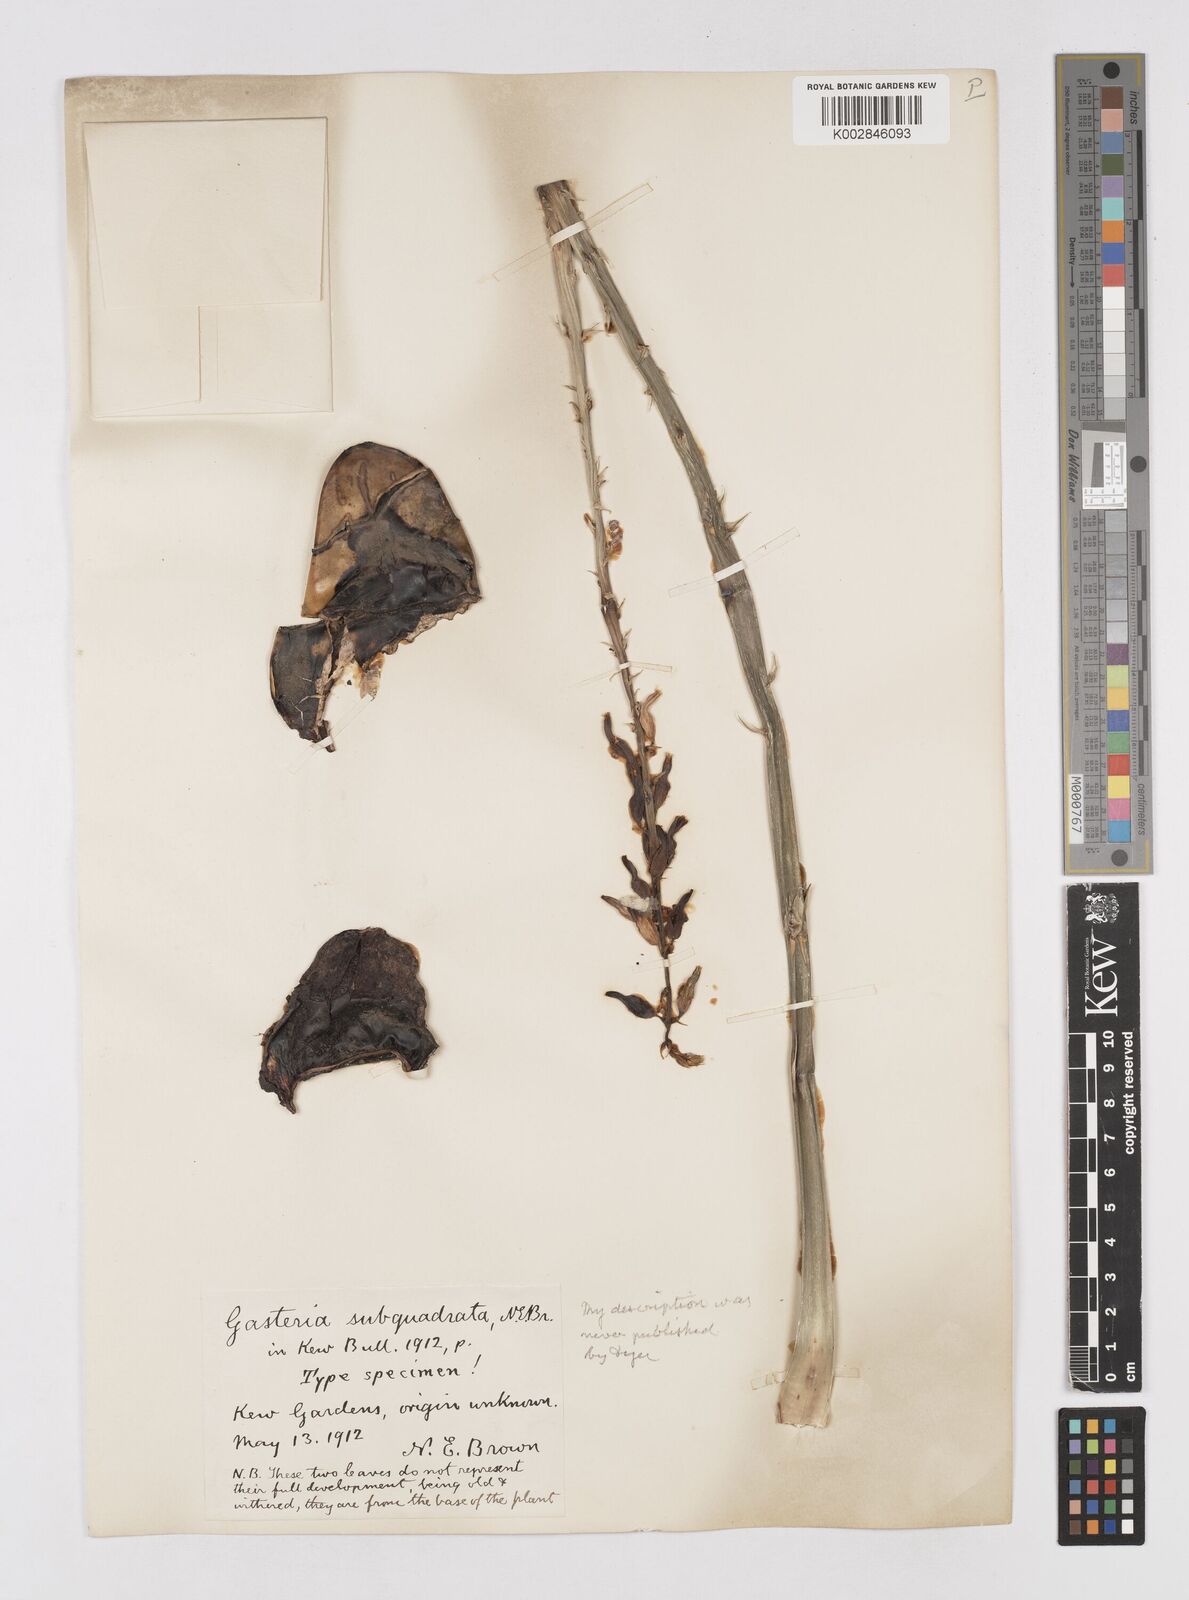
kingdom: Plantae
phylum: Tracheophyta
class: Liliopsida
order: Asparagales
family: Asphodelaceae
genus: Gasteria
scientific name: Gasteria
